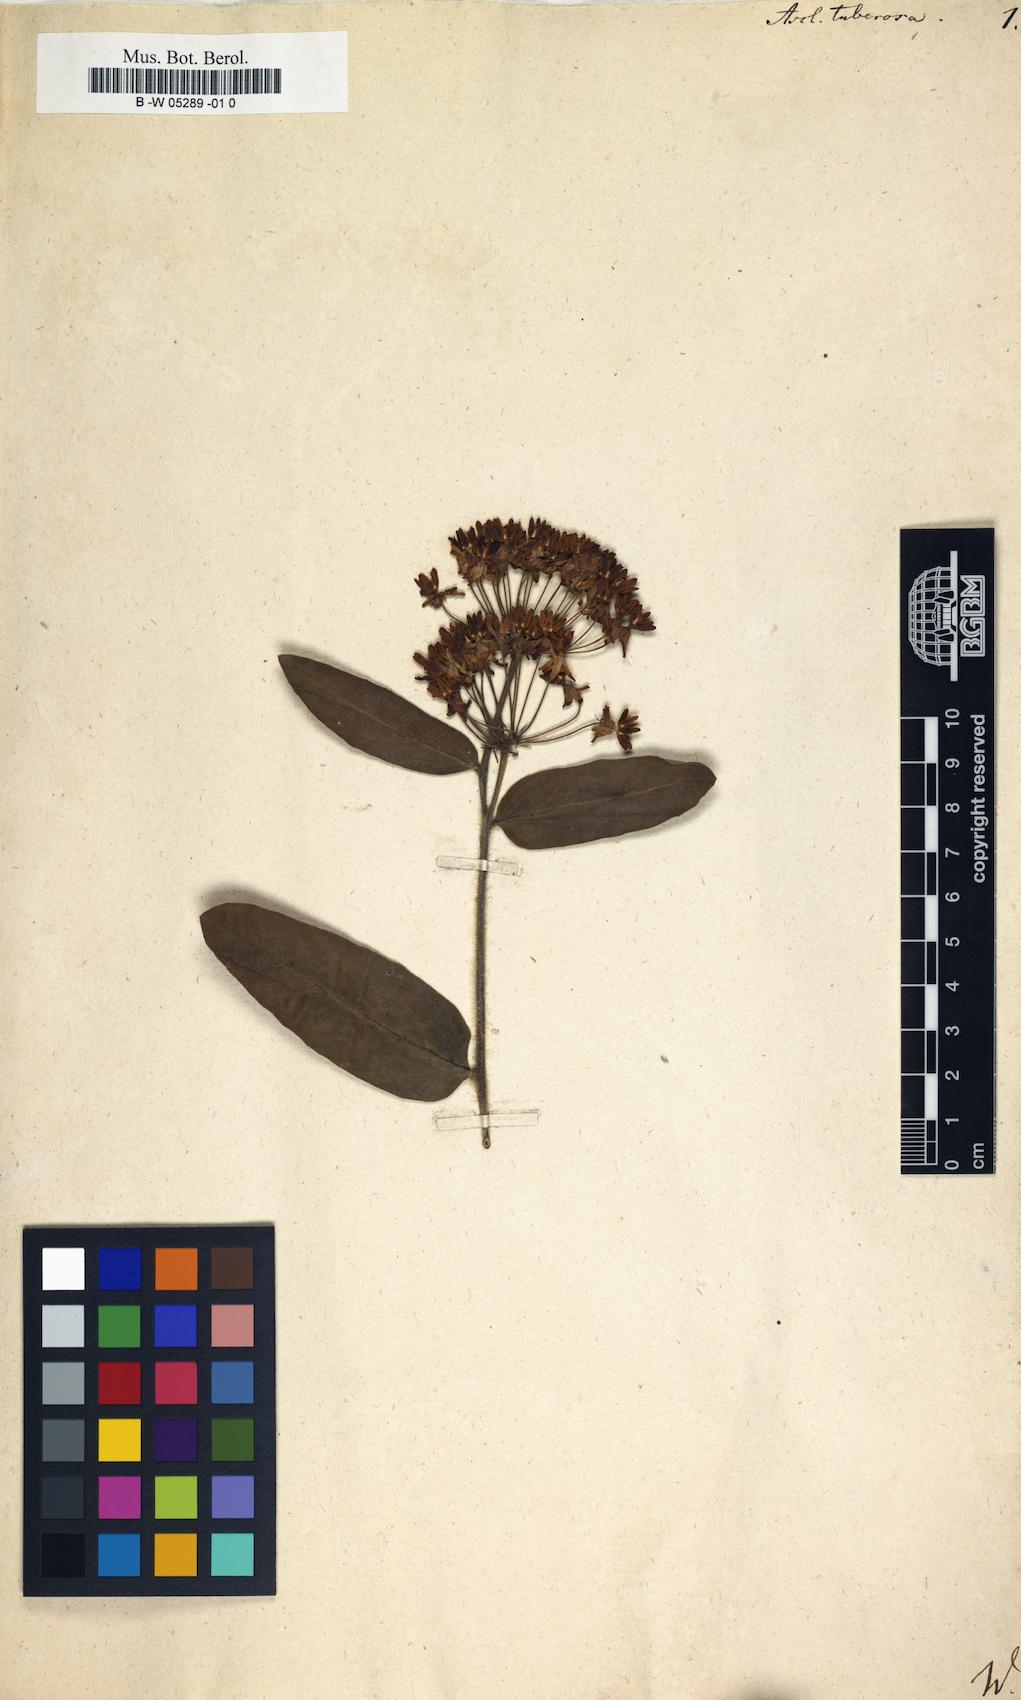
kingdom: Plantae
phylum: Tracheophyta
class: Magnoliopsida
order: Gentianales
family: Apocynaceae
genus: Asclepias
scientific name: Asclepias tuberosa
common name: Butterfly milkweed
